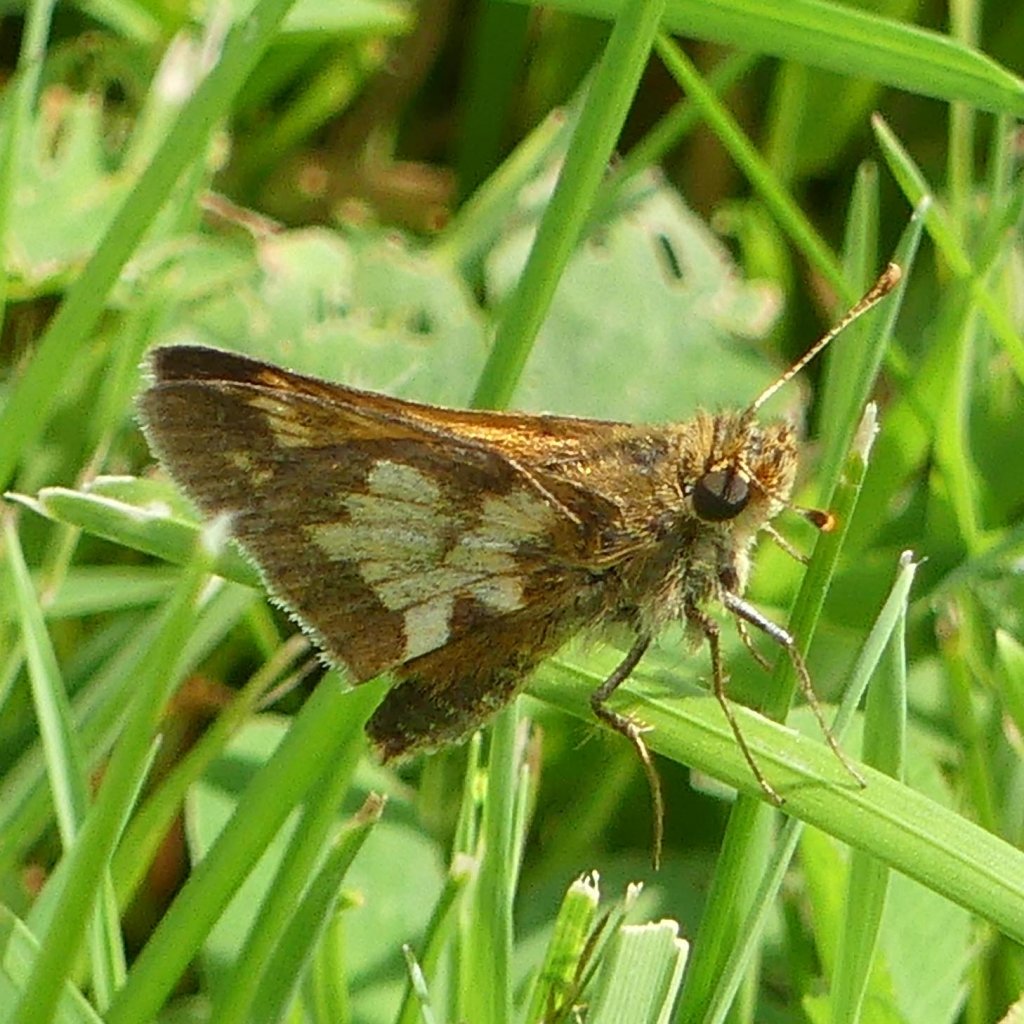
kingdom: Animalia
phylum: Arthropoda
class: Insecta
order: Lepidoptera
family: Hesperiidae
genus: Polites
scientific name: Polites coras
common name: Peck's Skipper
